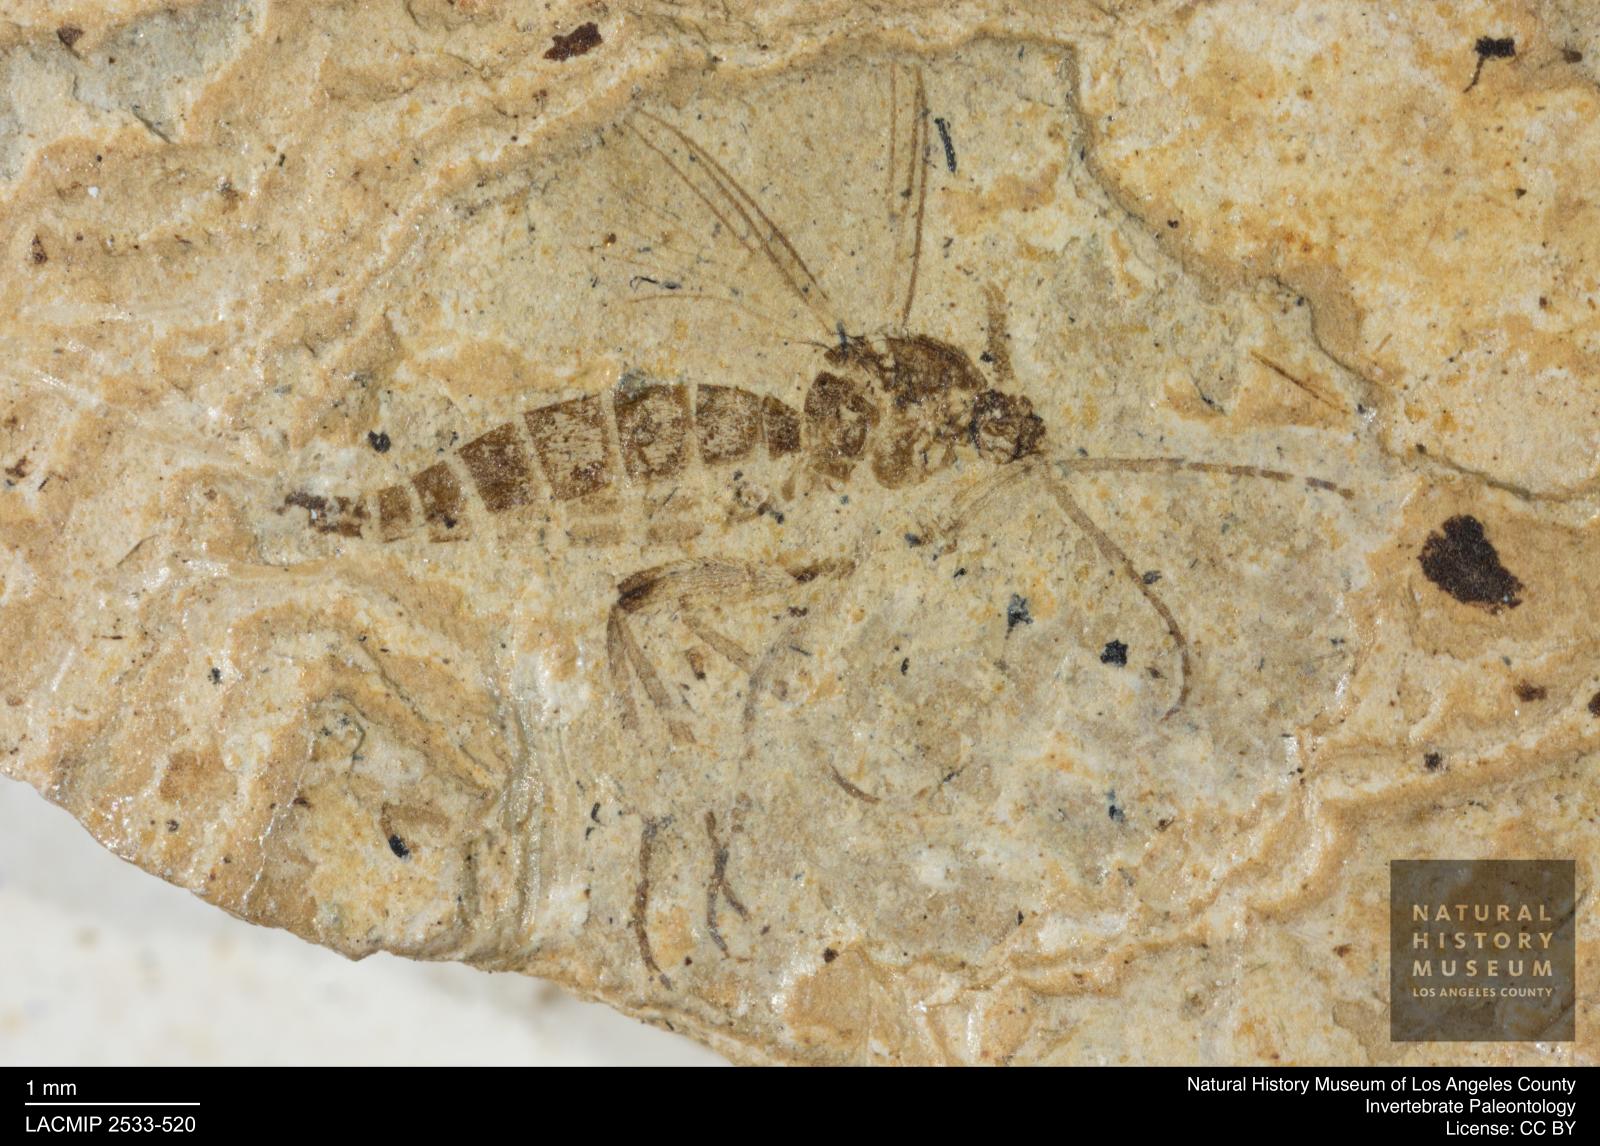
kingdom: Animalia
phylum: Arthropoda
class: Insecta
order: Diptera
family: Mycetophilidae
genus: Dziedzickia
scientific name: Dziedzickia lepida
